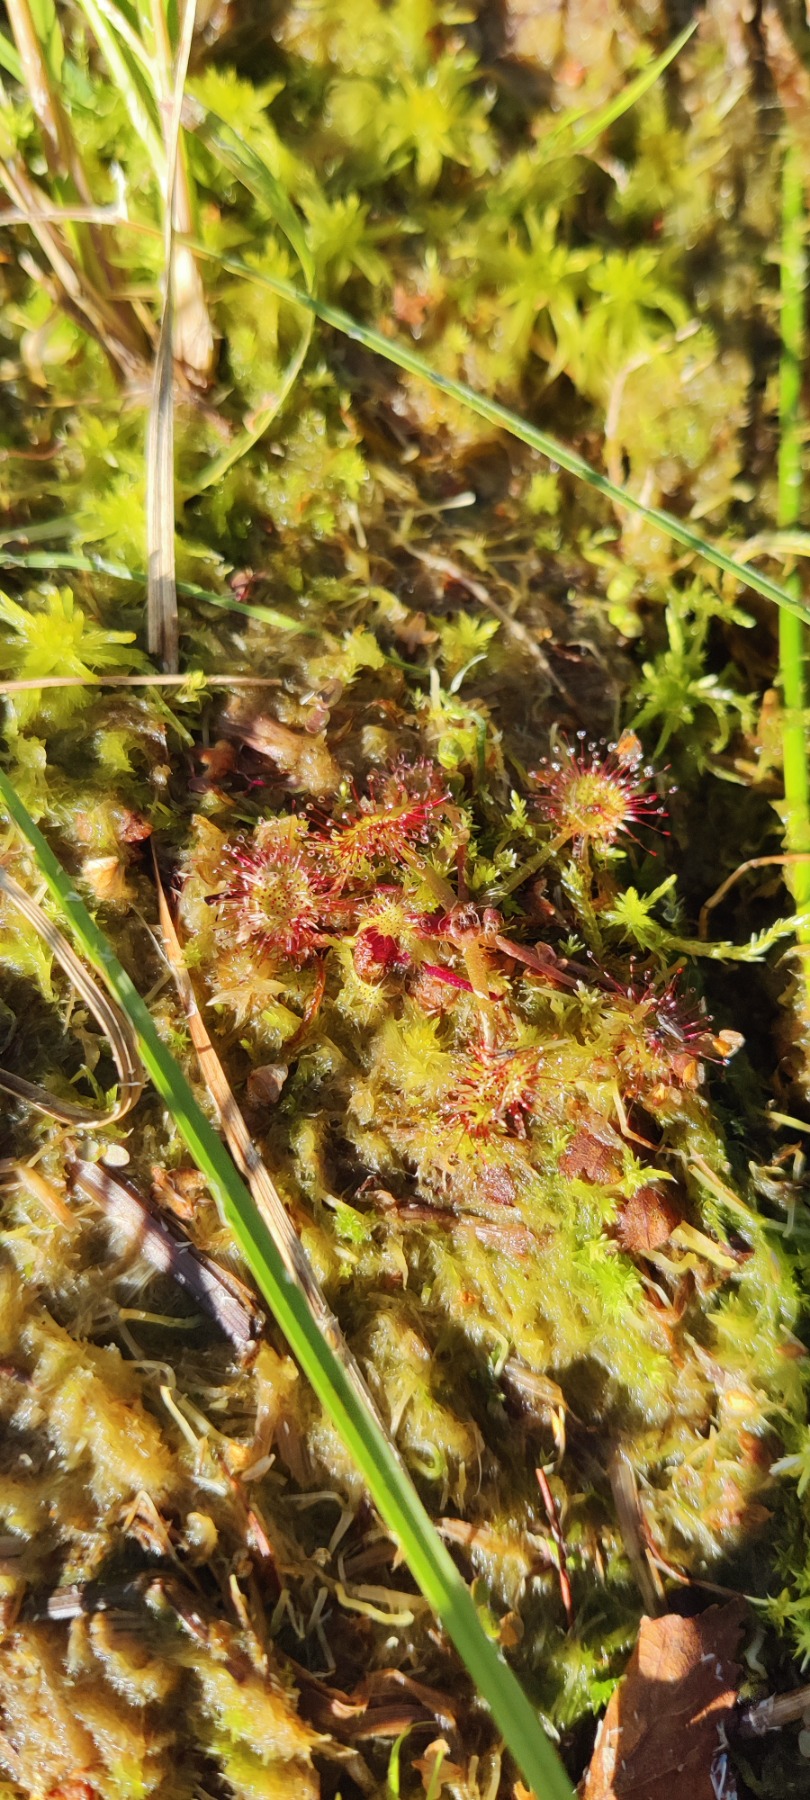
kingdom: Plantae
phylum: Tracheophyta
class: Magnoliopsida
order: Caryophyllales
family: Droseraceae
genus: Drosera
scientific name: Drosera rotundifolia
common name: Rundbladet soldug
